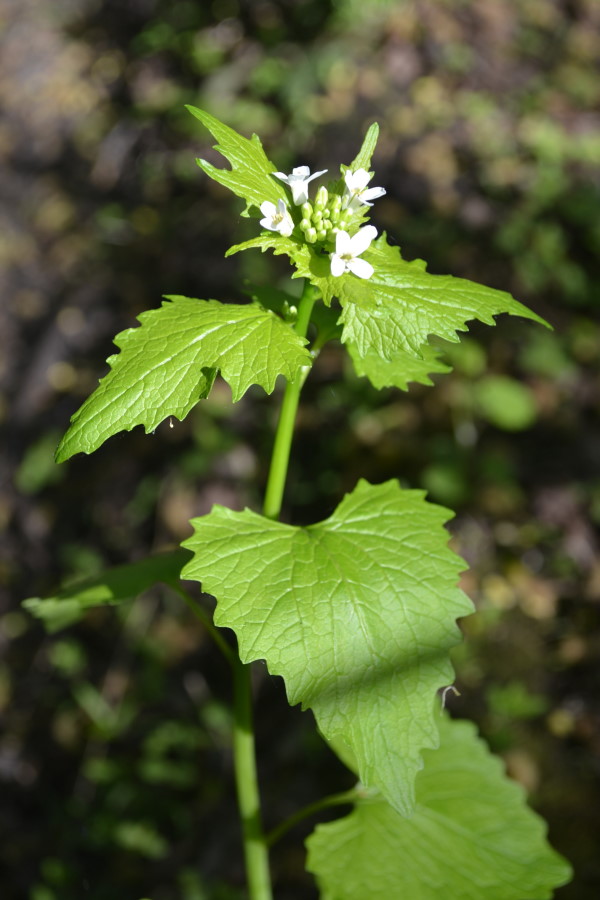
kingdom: Plantae
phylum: Tracheophyta
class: Magnoliopsida
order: Brassicales
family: Brassicaceae
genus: Alliaria
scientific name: Alliaria petiolata
